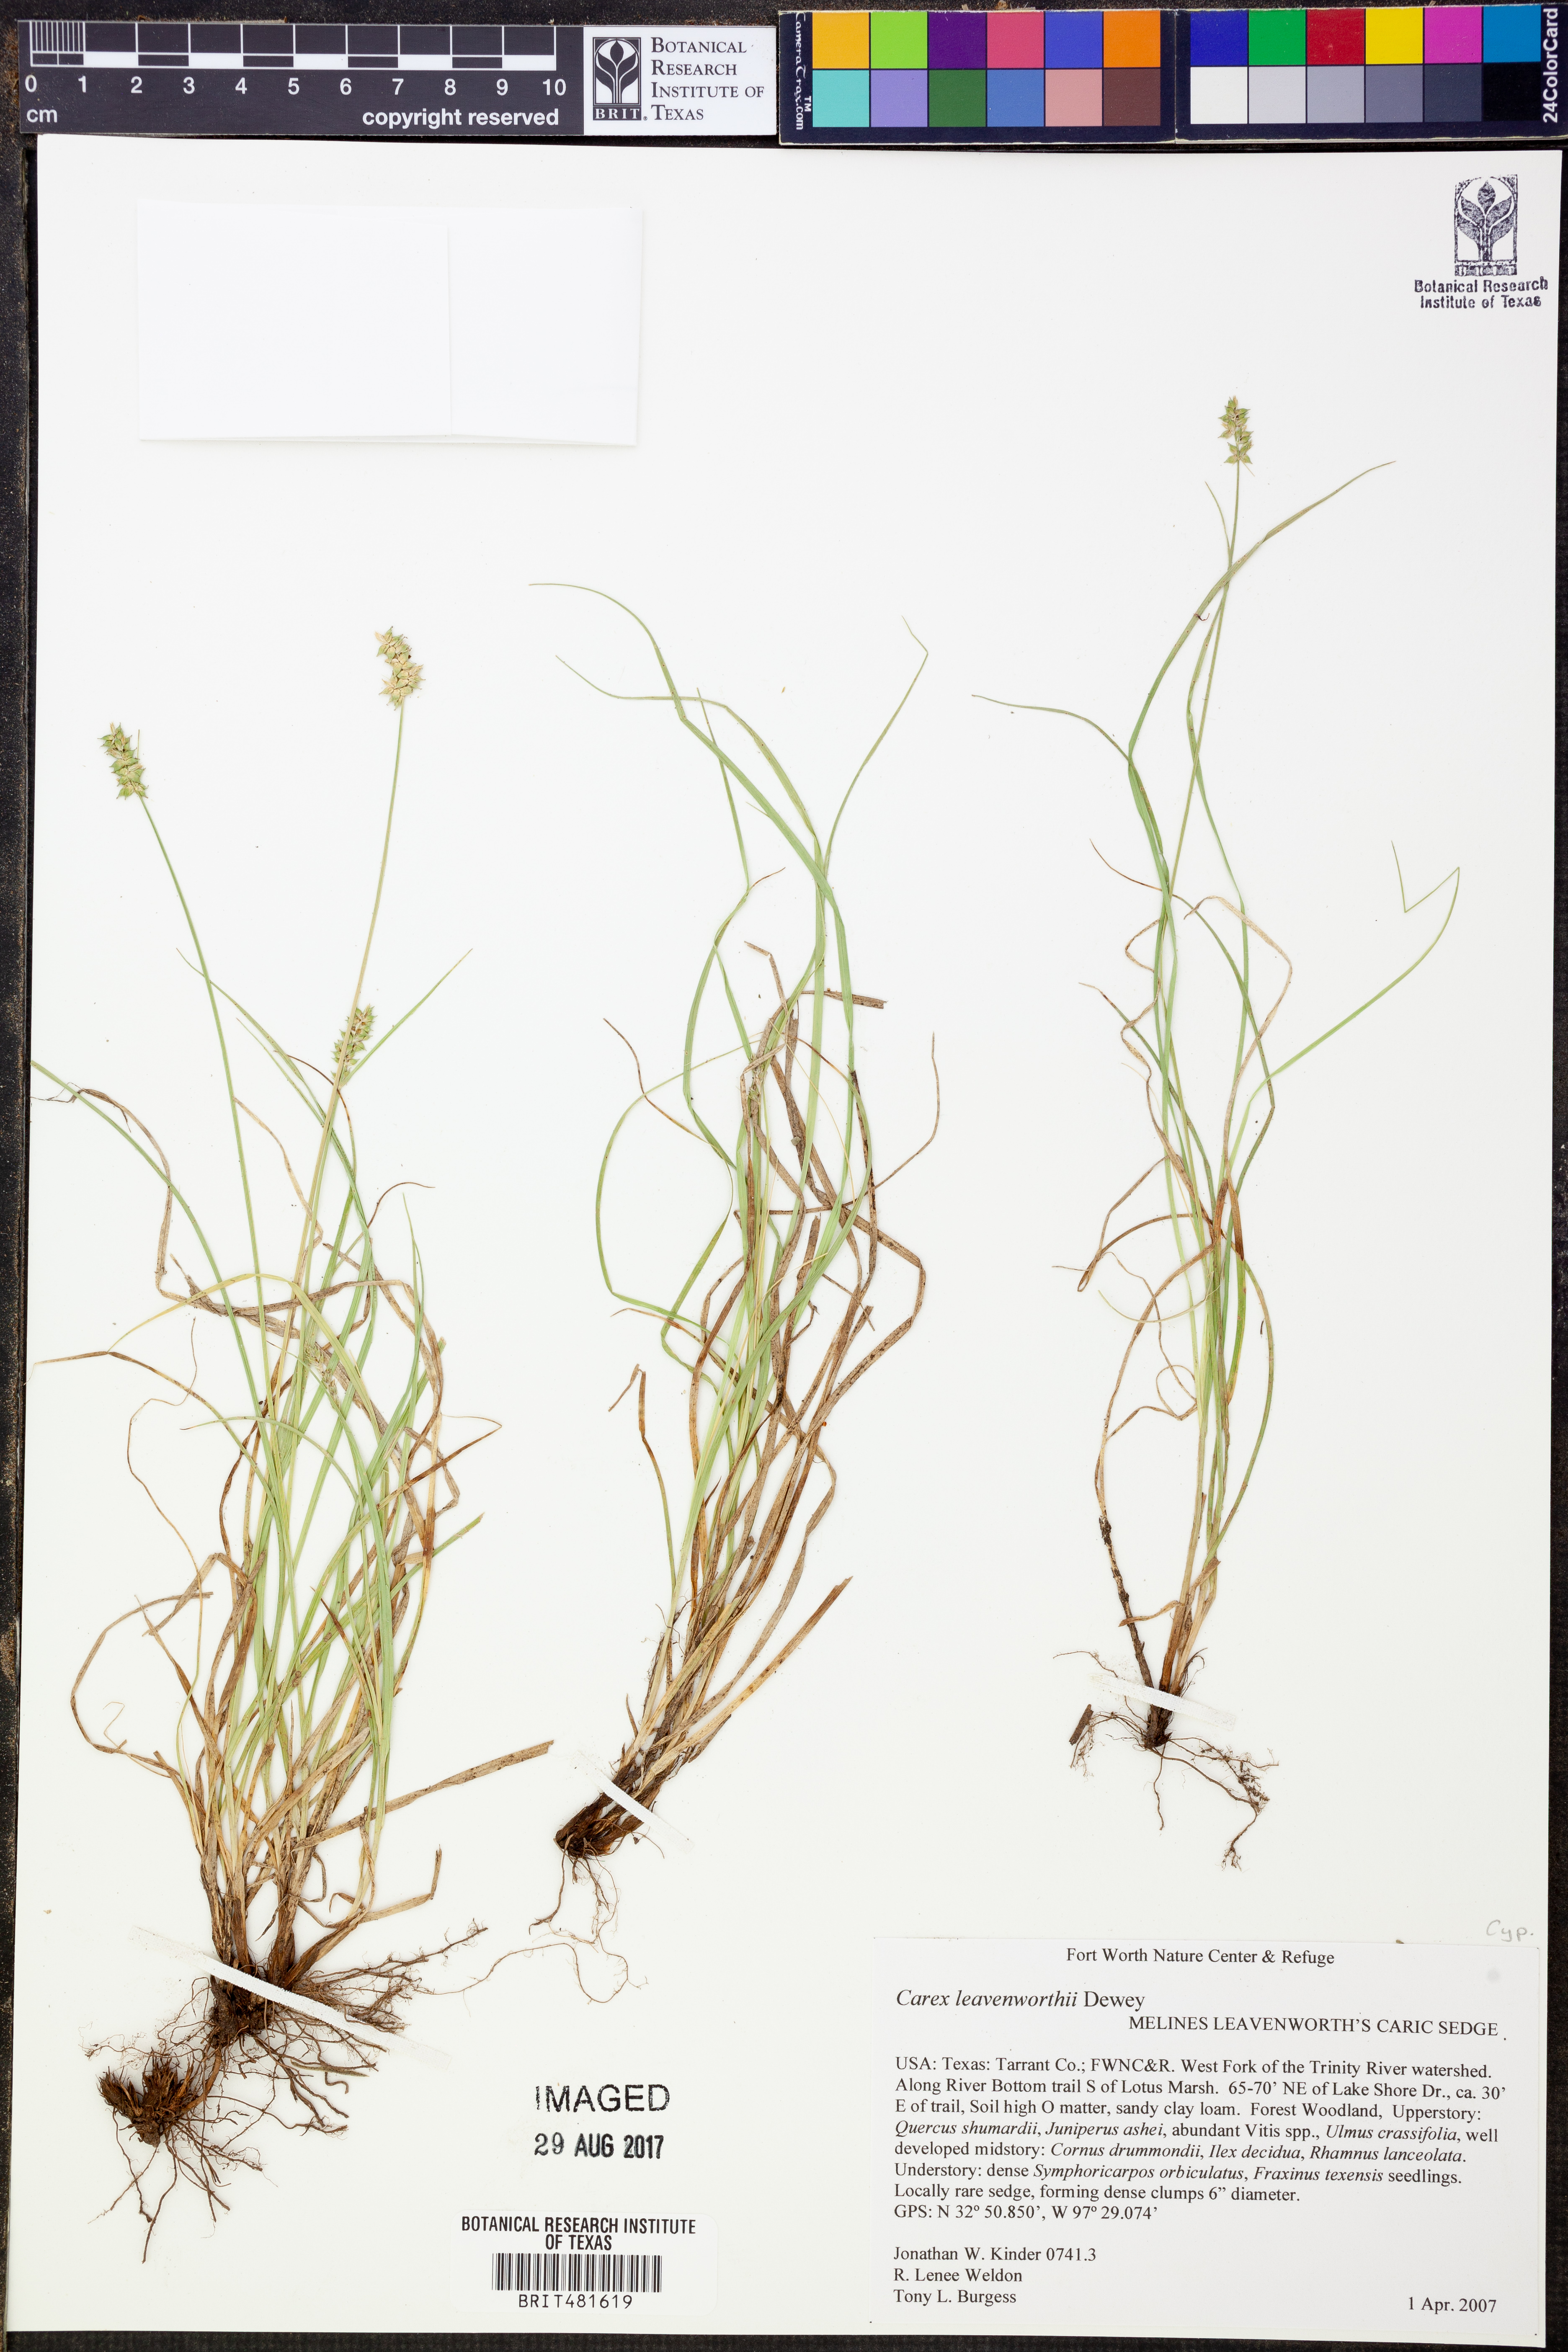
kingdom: Plantae
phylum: Tracheophyta
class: Liliopsida
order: Poales
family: Cyperaceae
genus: Carex
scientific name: Carex leavenworthii
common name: Leavenworth's bracted sedge
